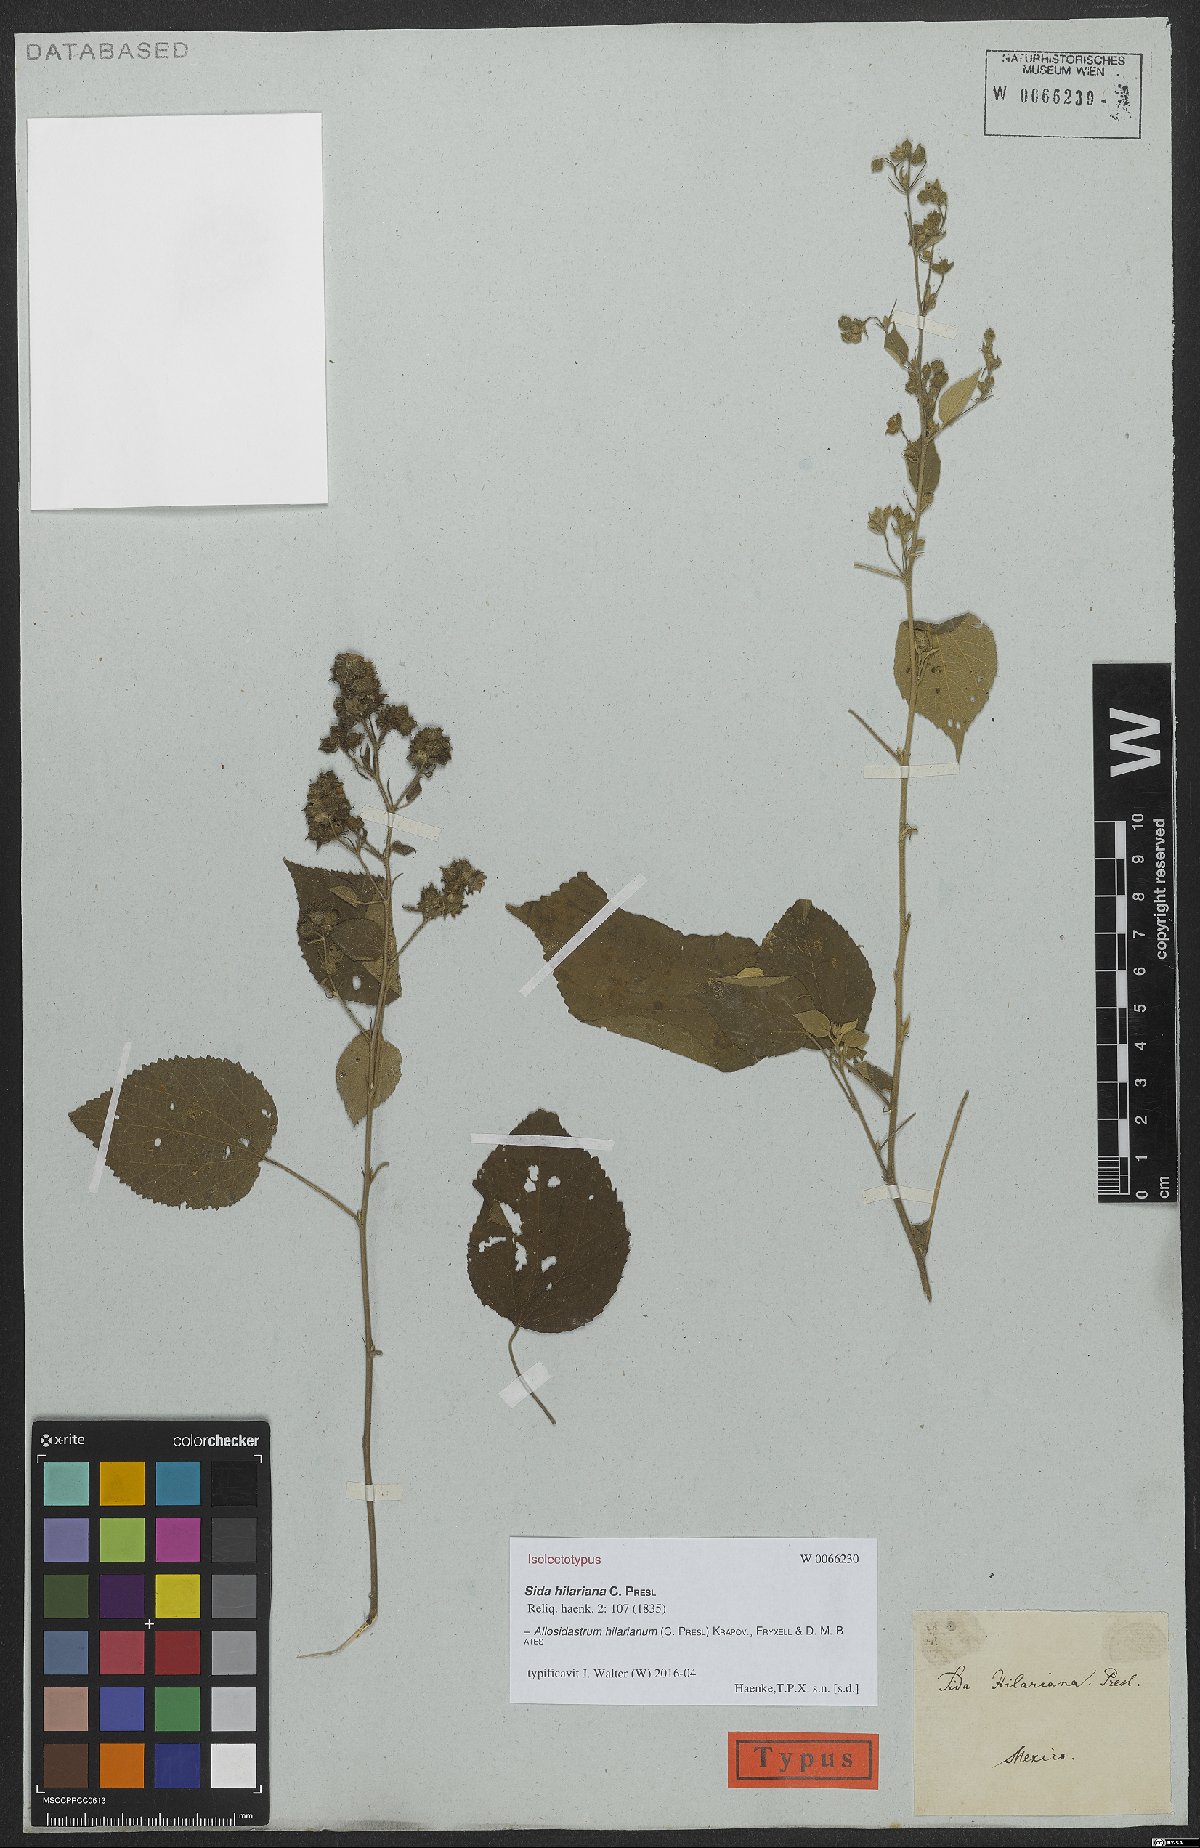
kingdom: Plantae
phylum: Tracheophyta
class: Magnoliopsida
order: Malvales
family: Malvaceae
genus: Allosidastrum
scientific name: Allosidastrum hilarianum
